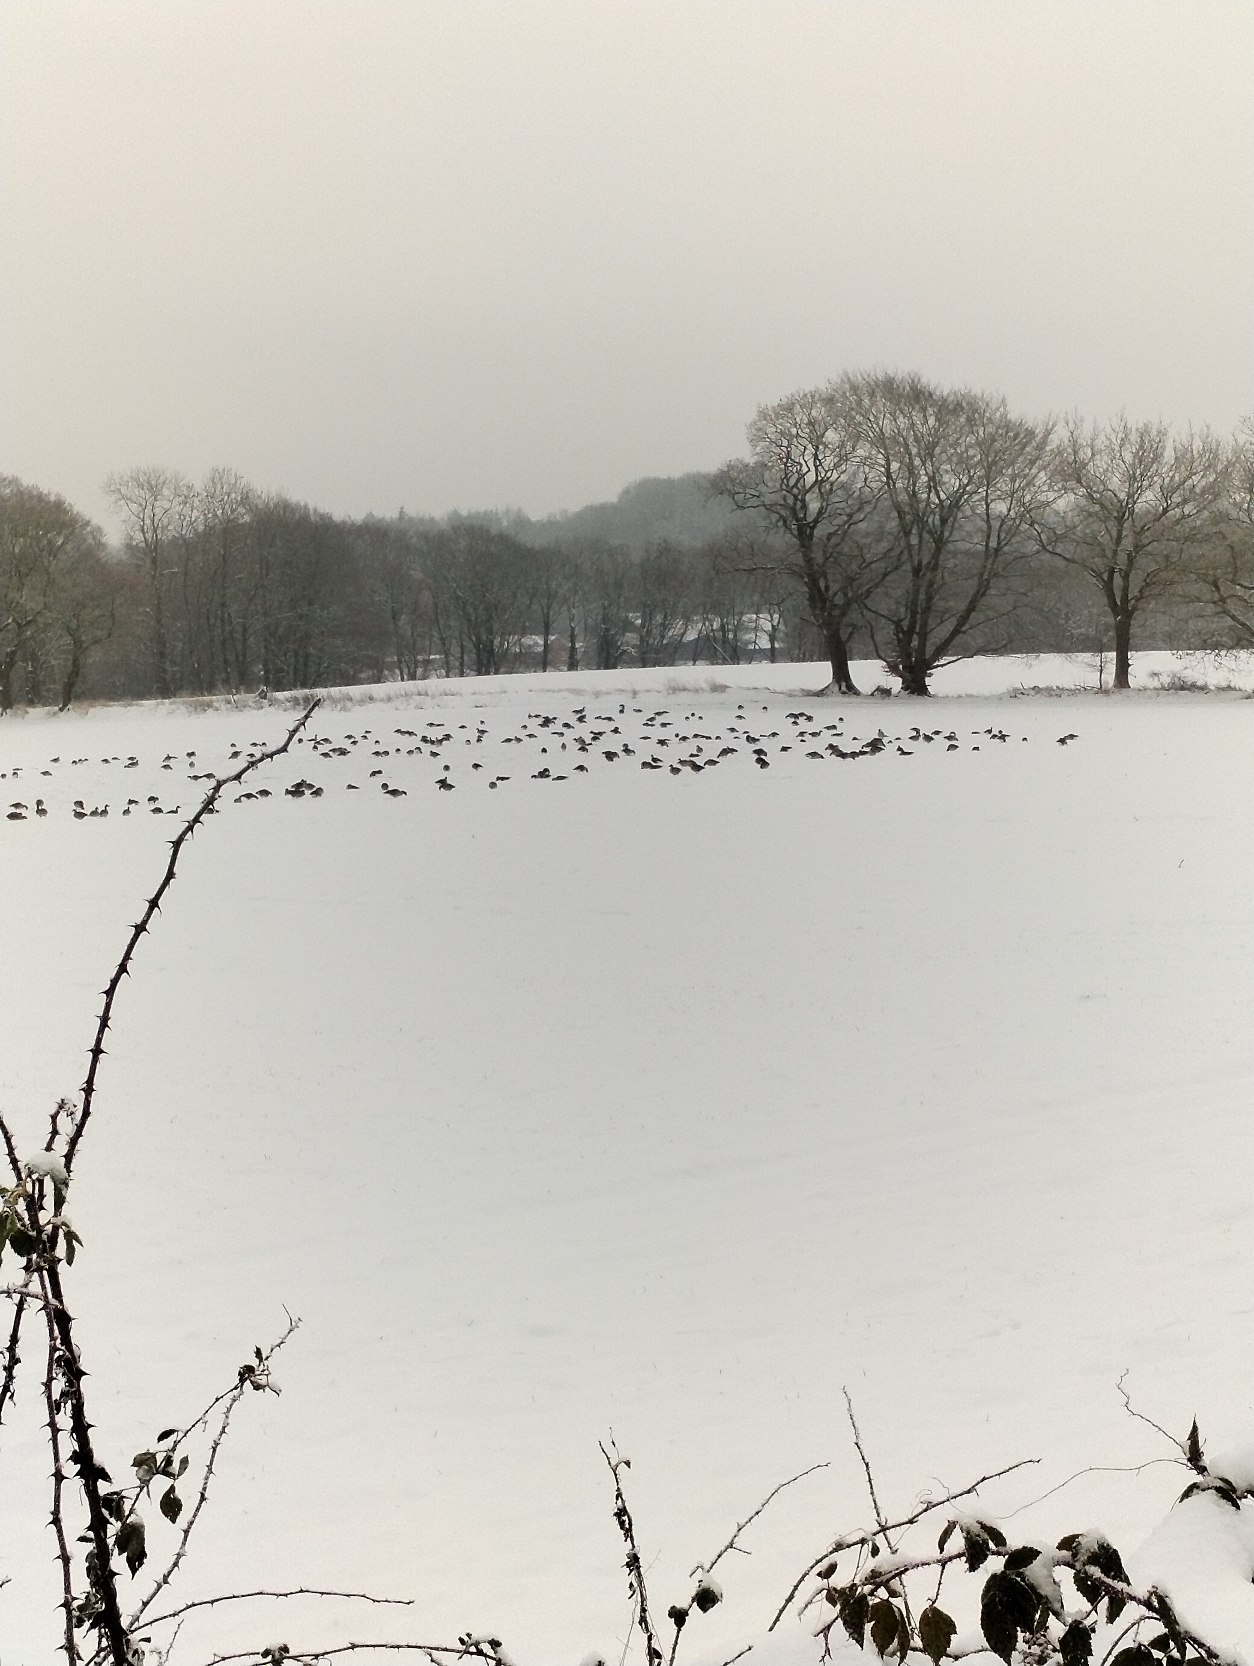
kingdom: Animalia
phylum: Chordata
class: Aves
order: Anseriformes
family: Anatidae
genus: Anser
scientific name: Anser anser
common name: Grågås
